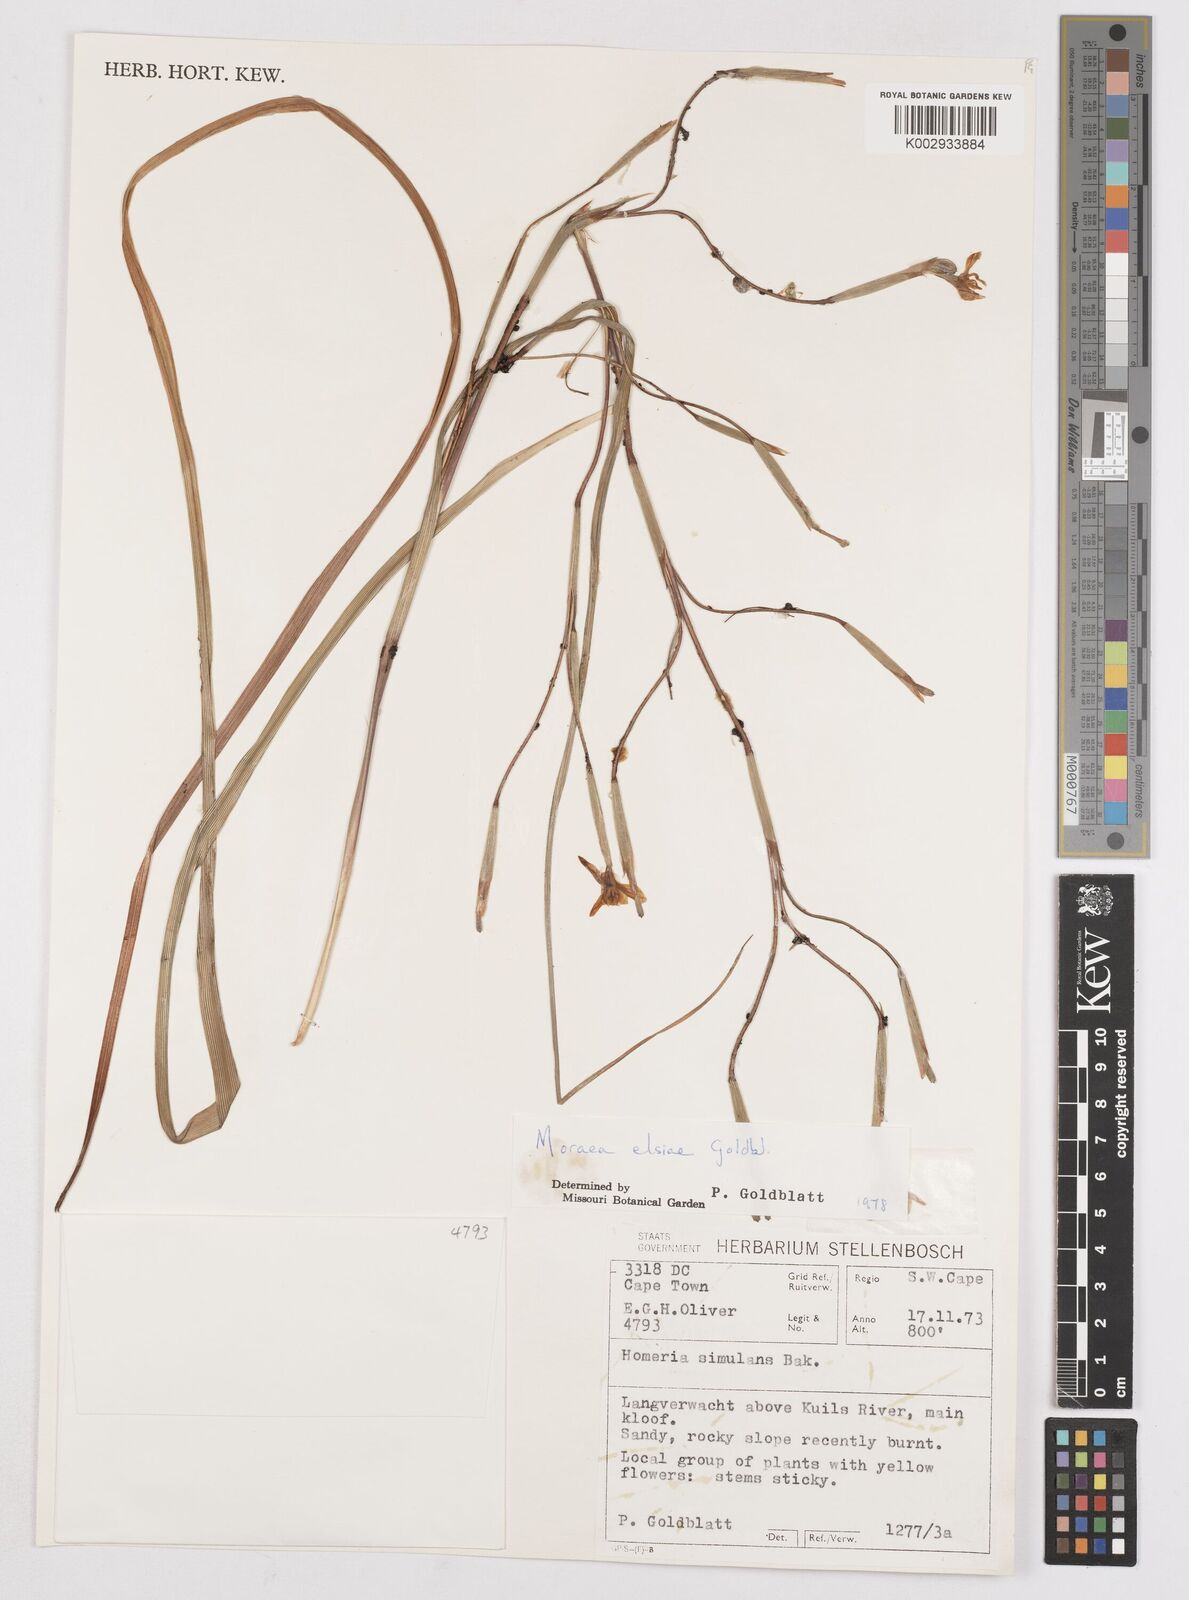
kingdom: Plantae
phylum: Tracheophyta
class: Liliopsida
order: Asparagales
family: Iridaceae
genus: Moraea
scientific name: Moraea elsiae
